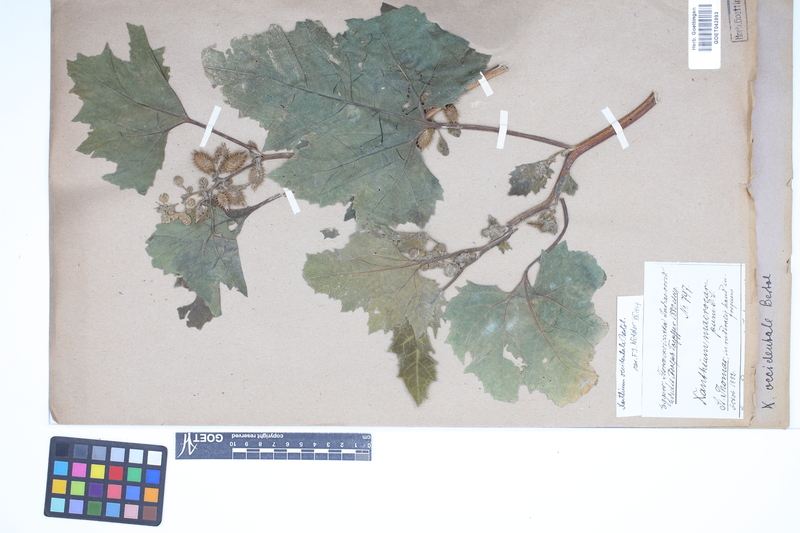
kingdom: Plantae
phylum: Tracheophyta
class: Magnoliopsida
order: Asterales
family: Asteraceae
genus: Xanthium
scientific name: Xanthium occidentale
